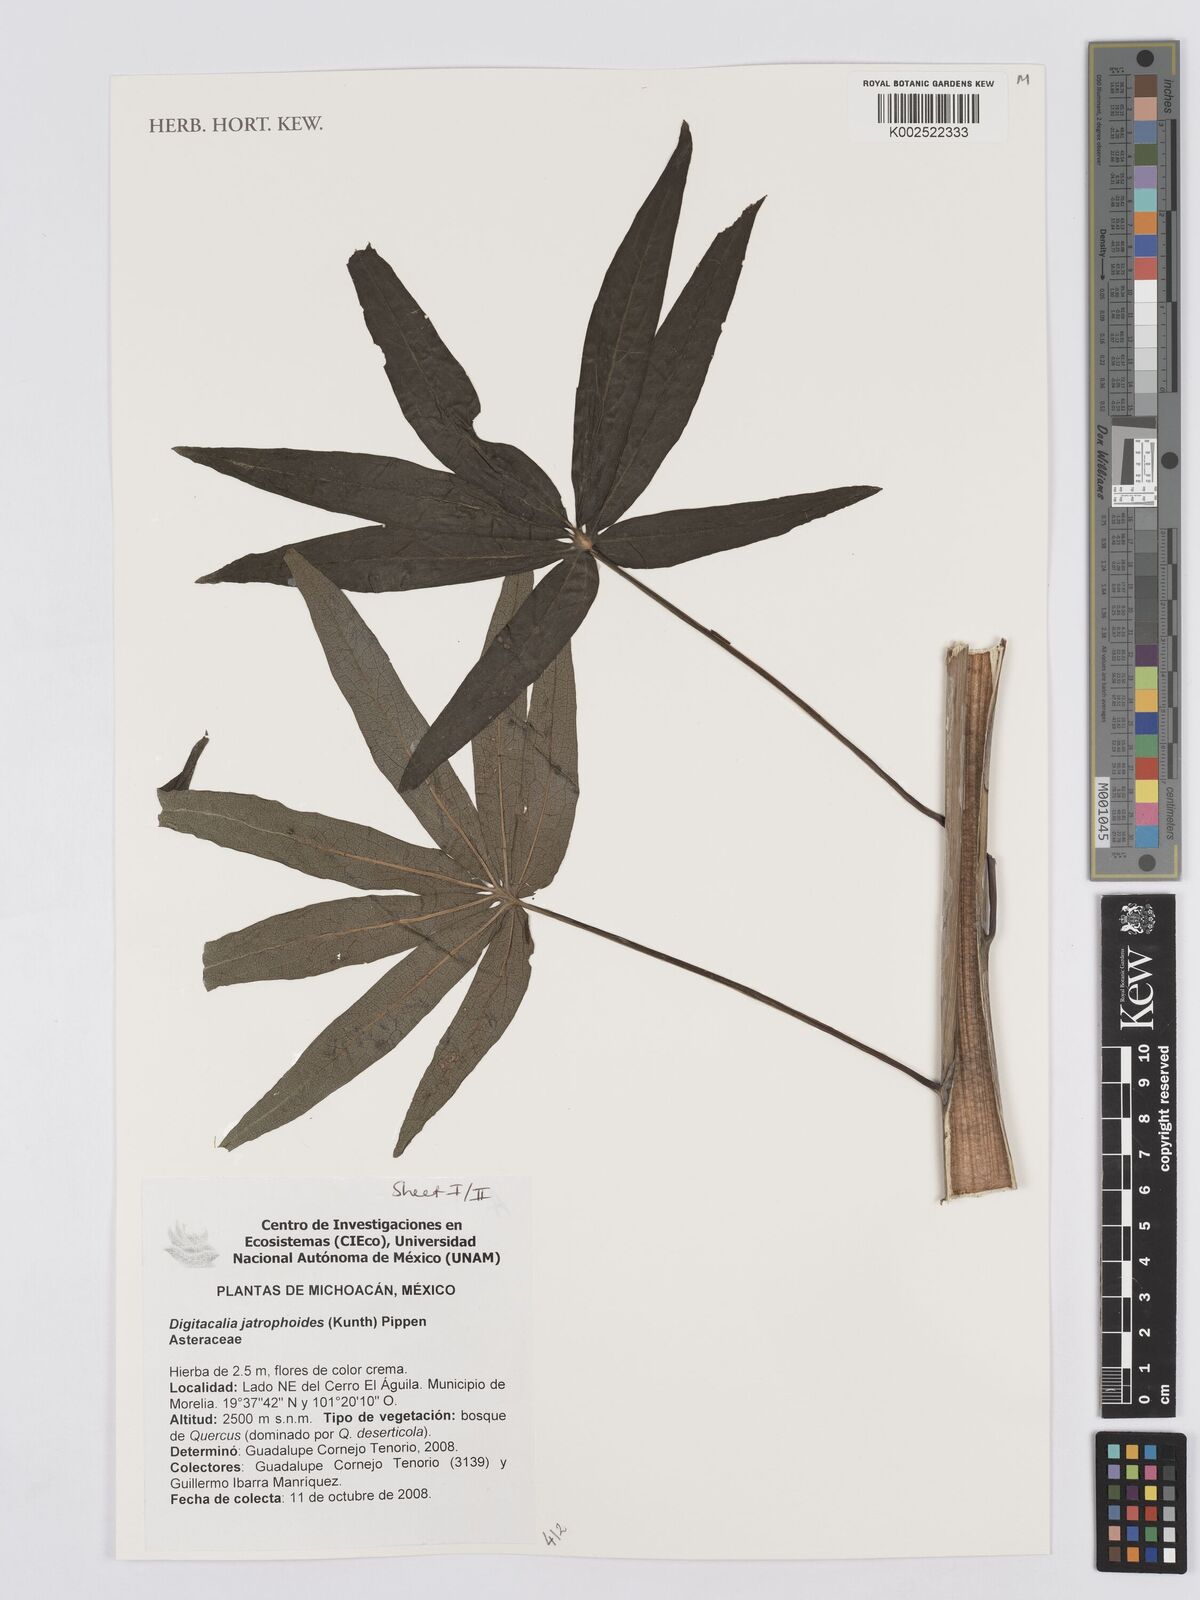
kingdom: Plantae
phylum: Tracheophyta
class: Magnoliopsida
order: Asterales
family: Asteraceae
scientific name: Asteraceae
